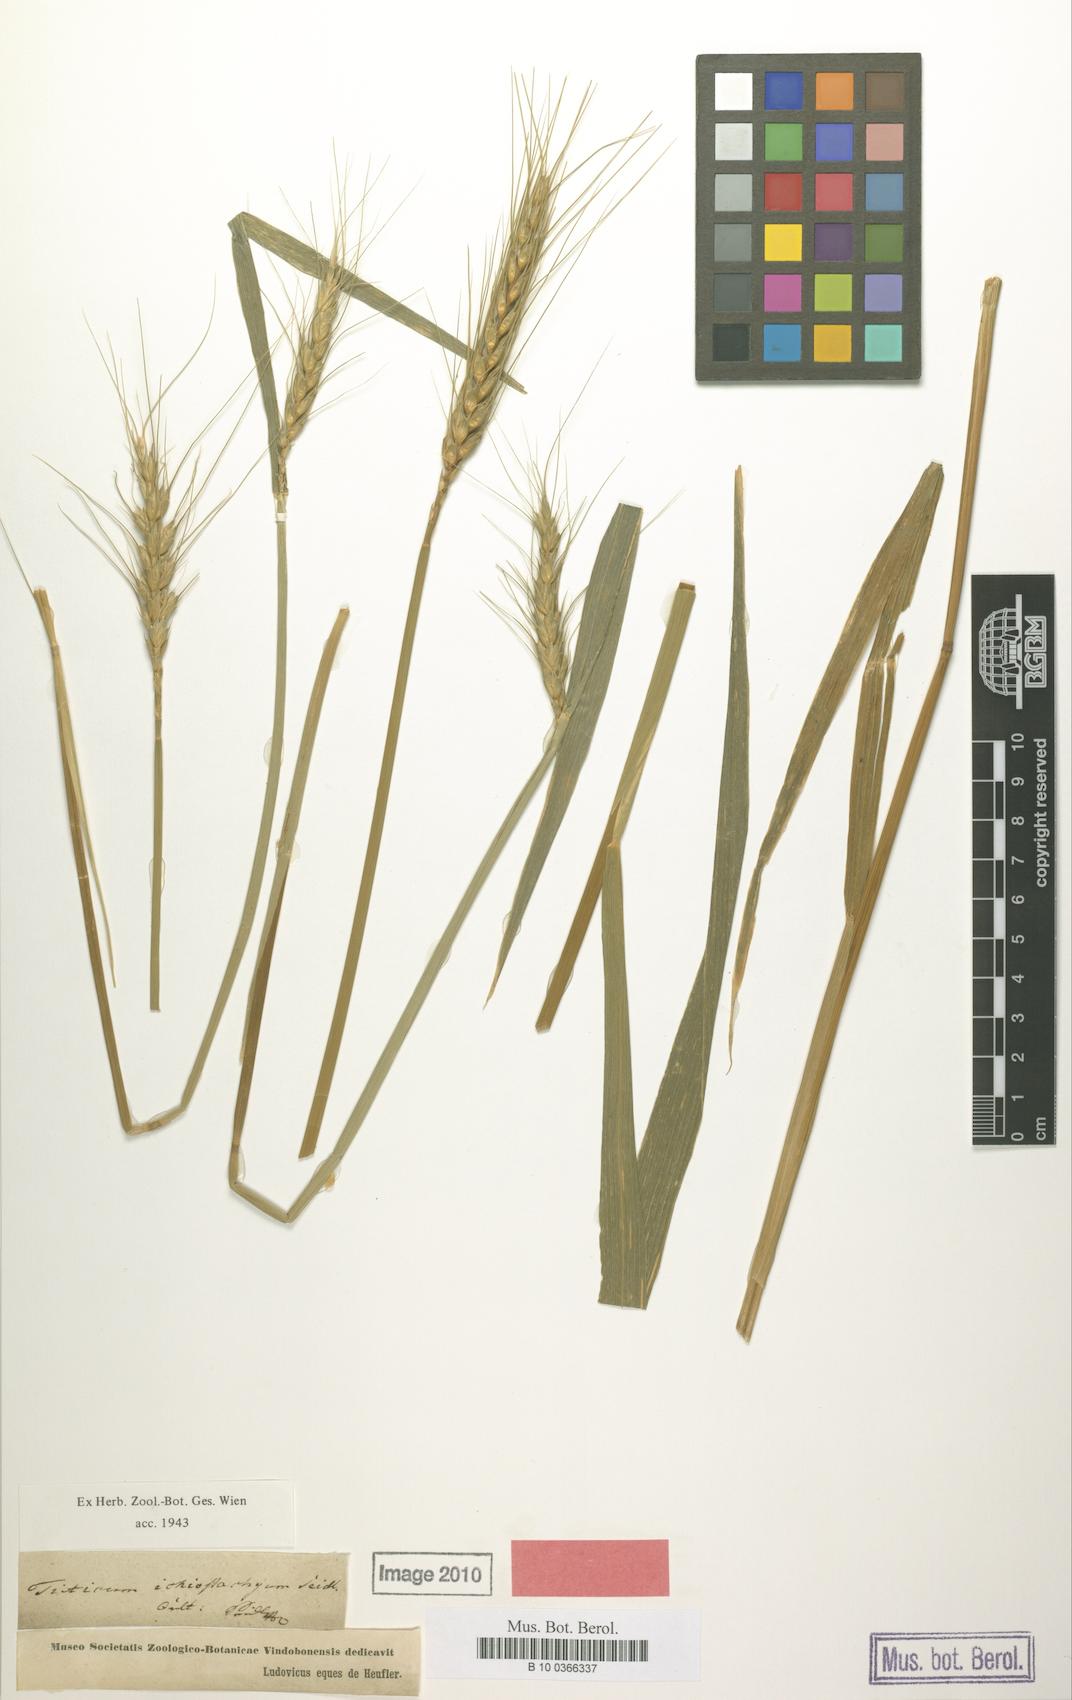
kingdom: Plantae
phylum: Tracheophyta
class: Liliopsida
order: Poales
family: Poaceae
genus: Triticum
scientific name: Triticum aestivum
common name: Common wheat
